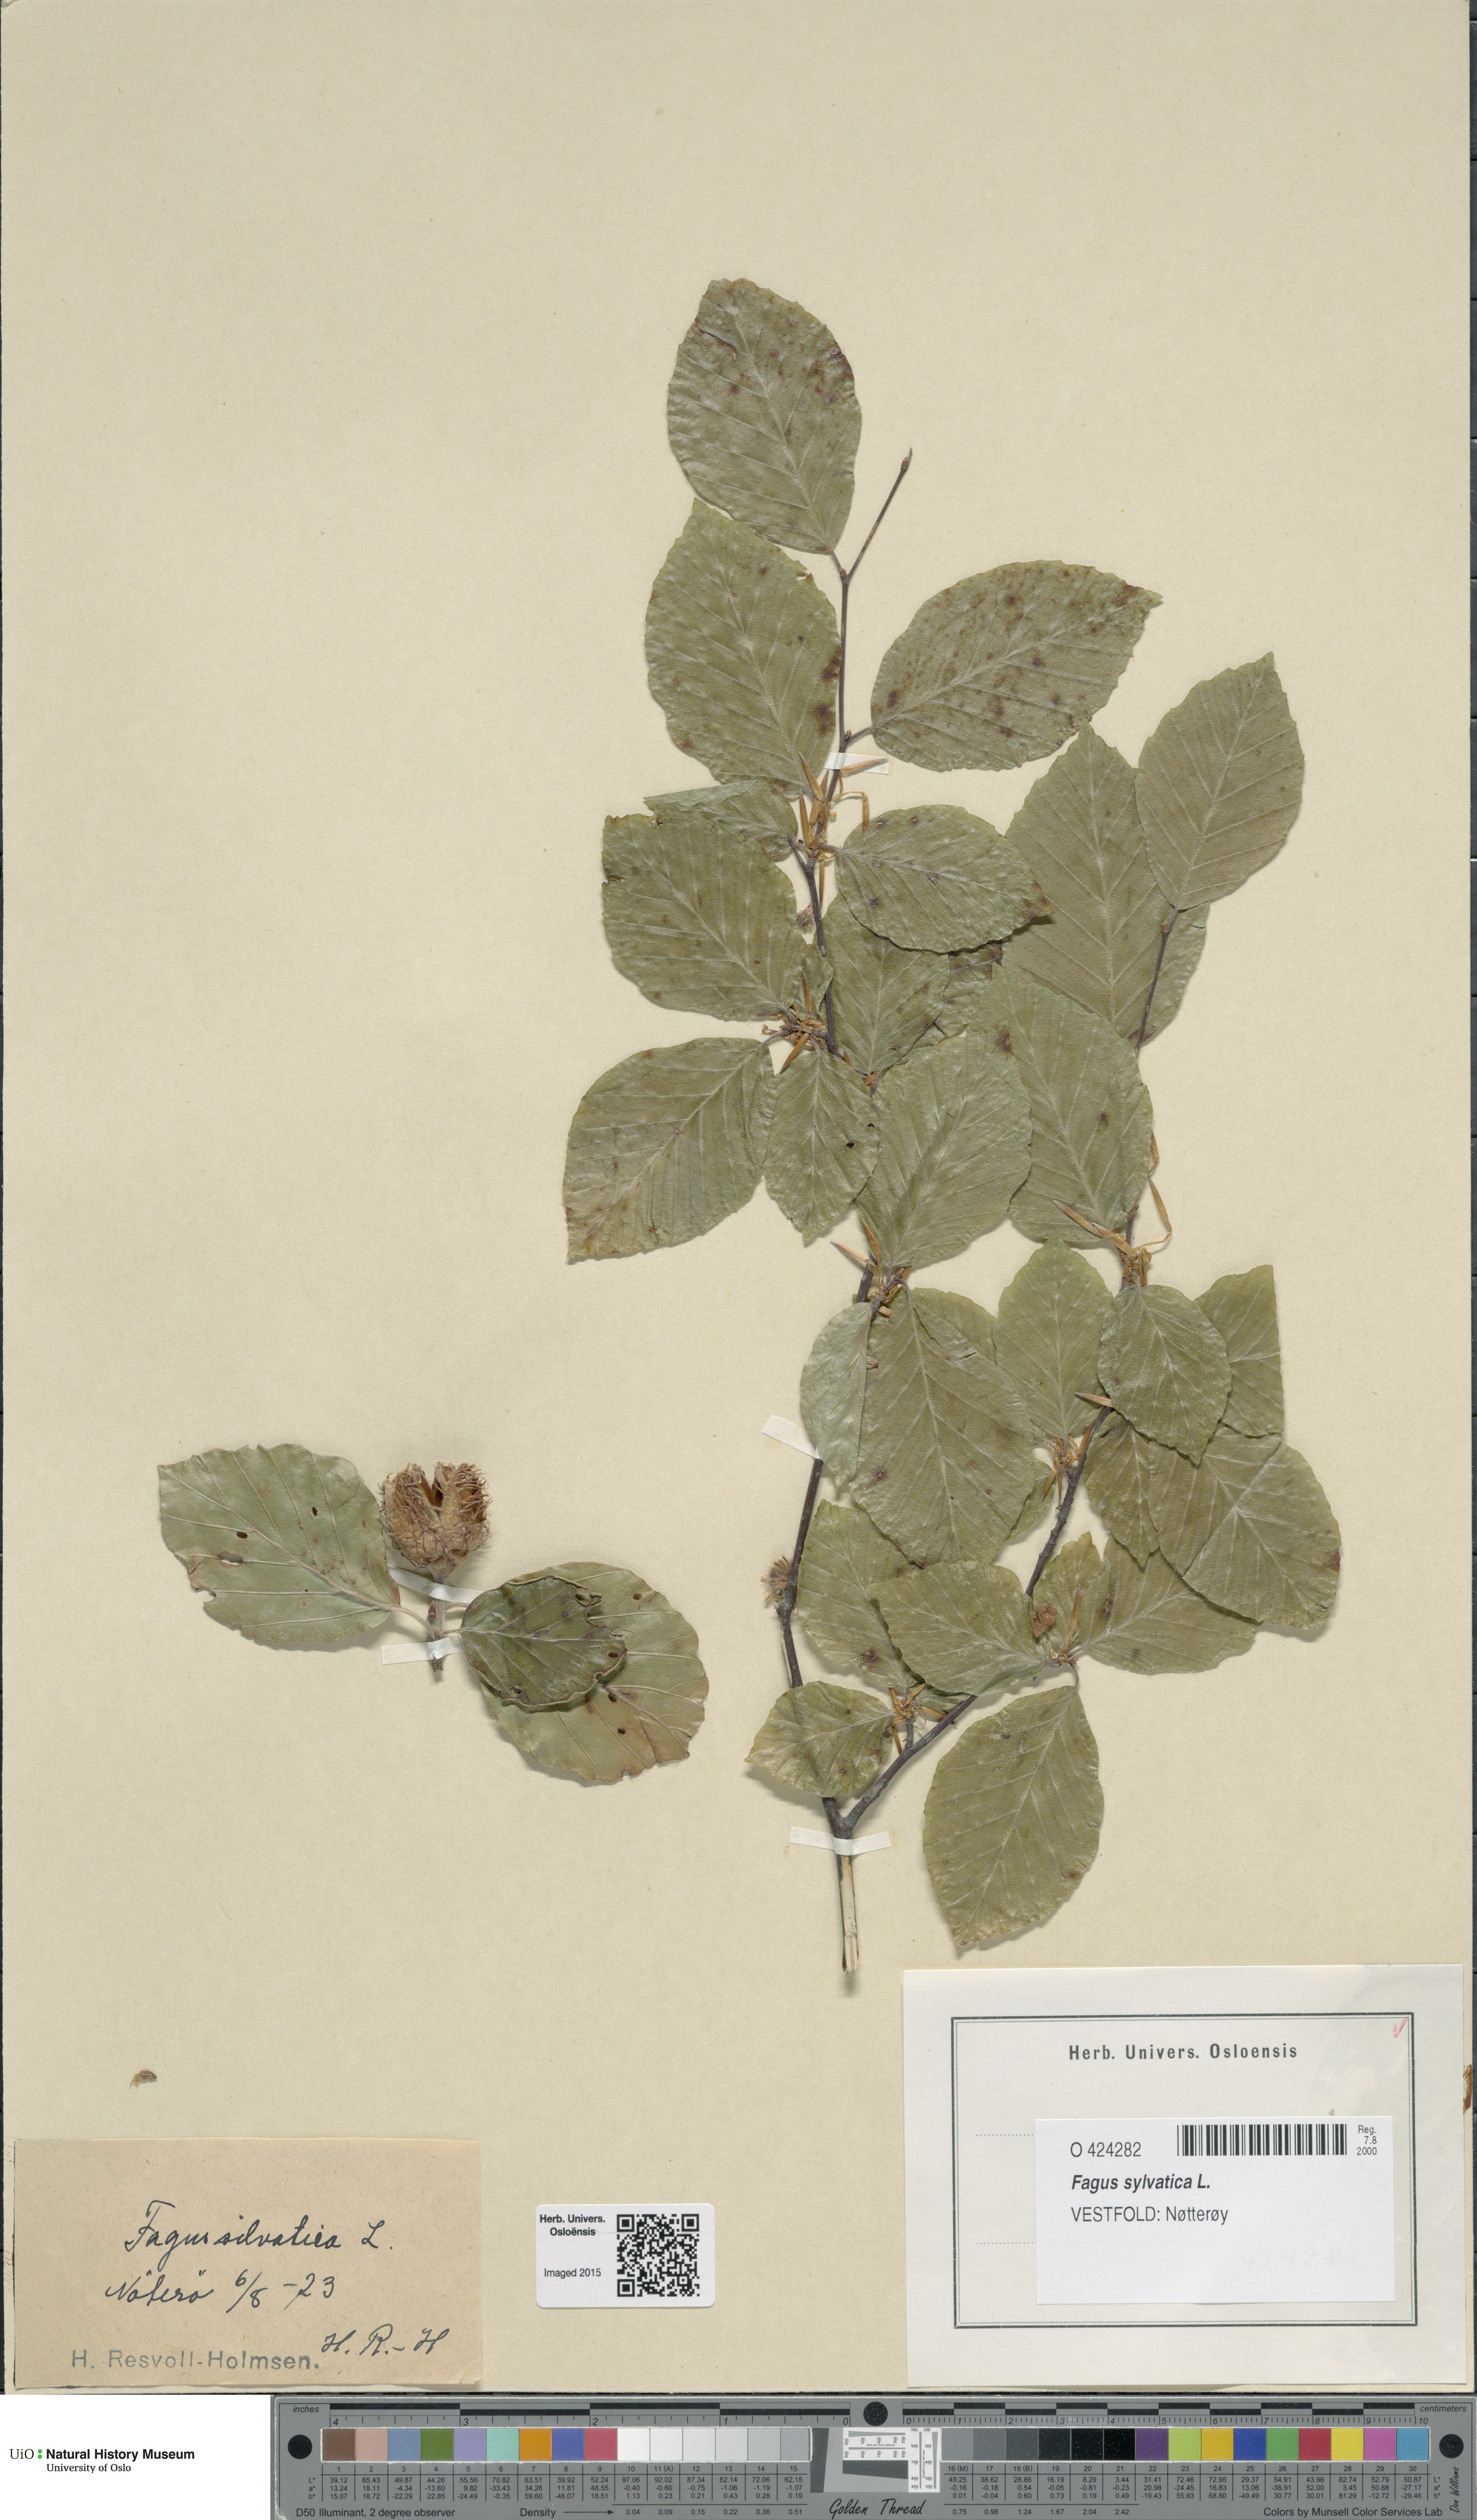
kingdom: Plantae
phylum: Tracheophyta
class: Magnoliopsida
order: Fagales
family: Fagaceae
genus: Fagus
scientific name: Fagus sylvatica
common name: Beech
